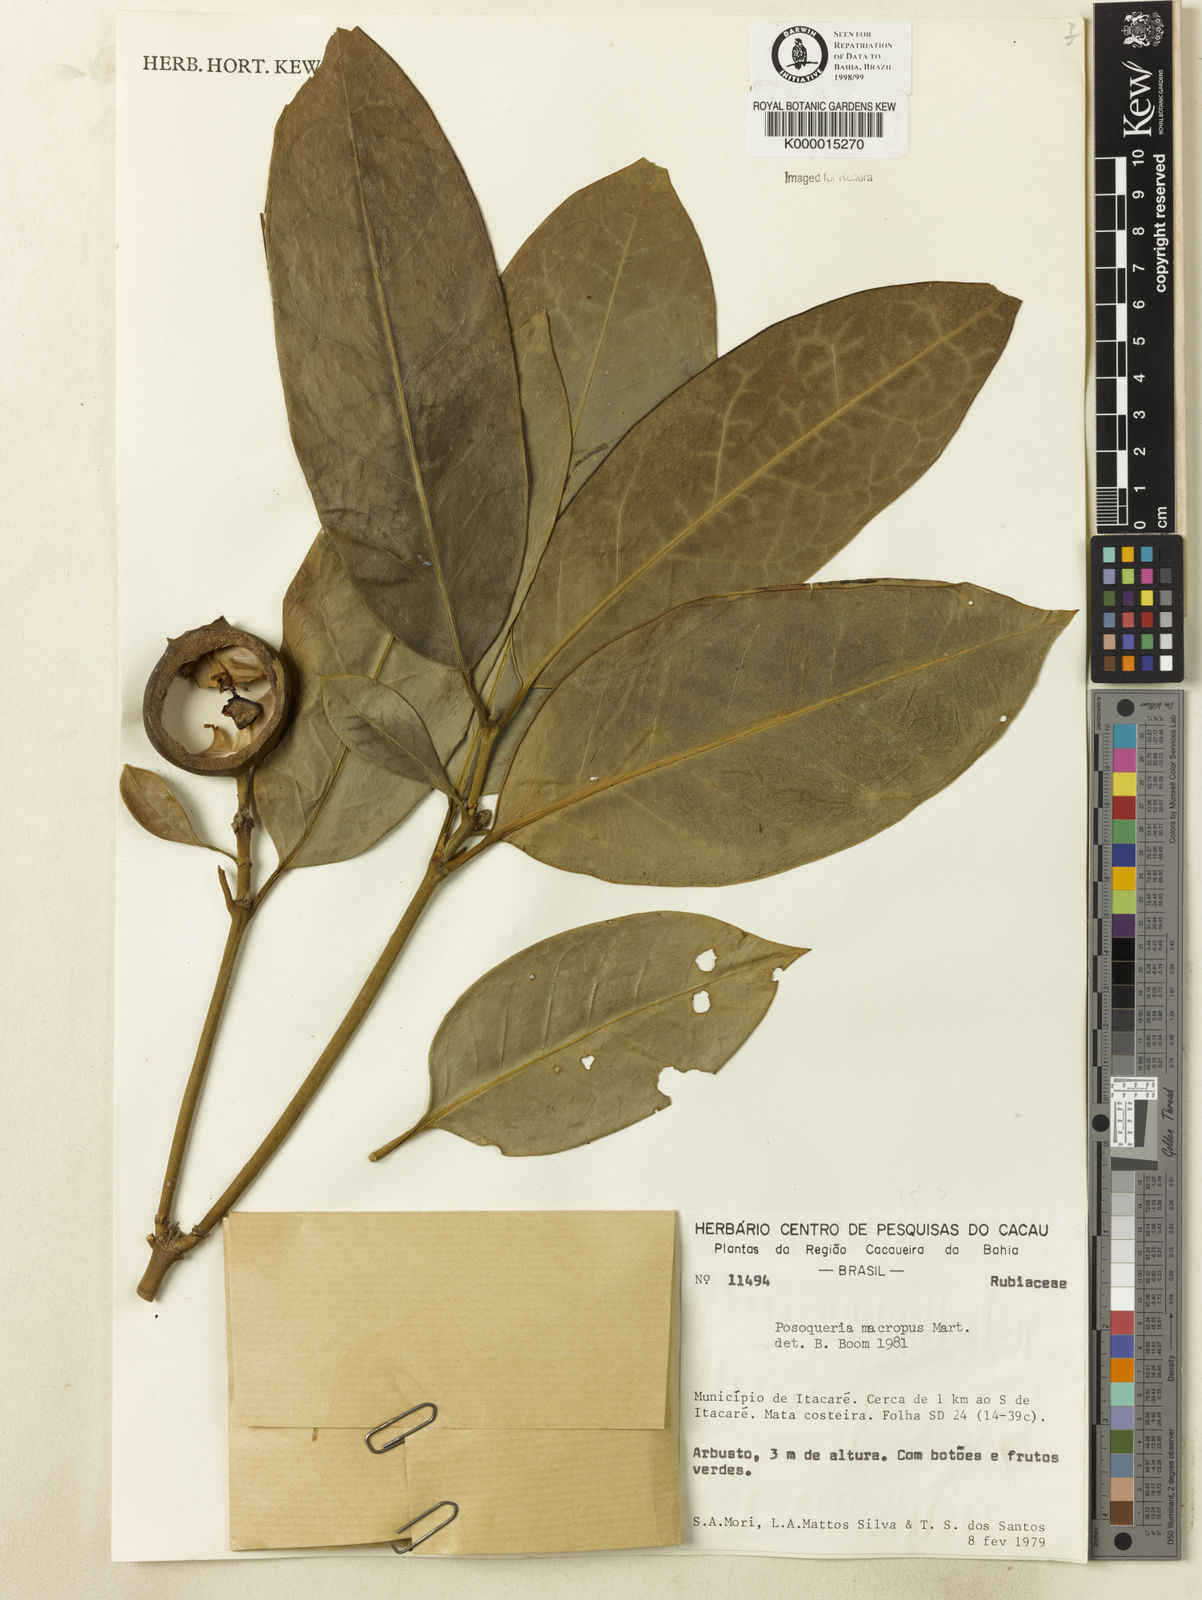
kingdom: Plantae
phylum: Tracheophyta
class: Magnoliopsida
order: Gentianales
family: Rubiaceae
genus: Posoqueria
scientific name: Posoqueria latifolia
